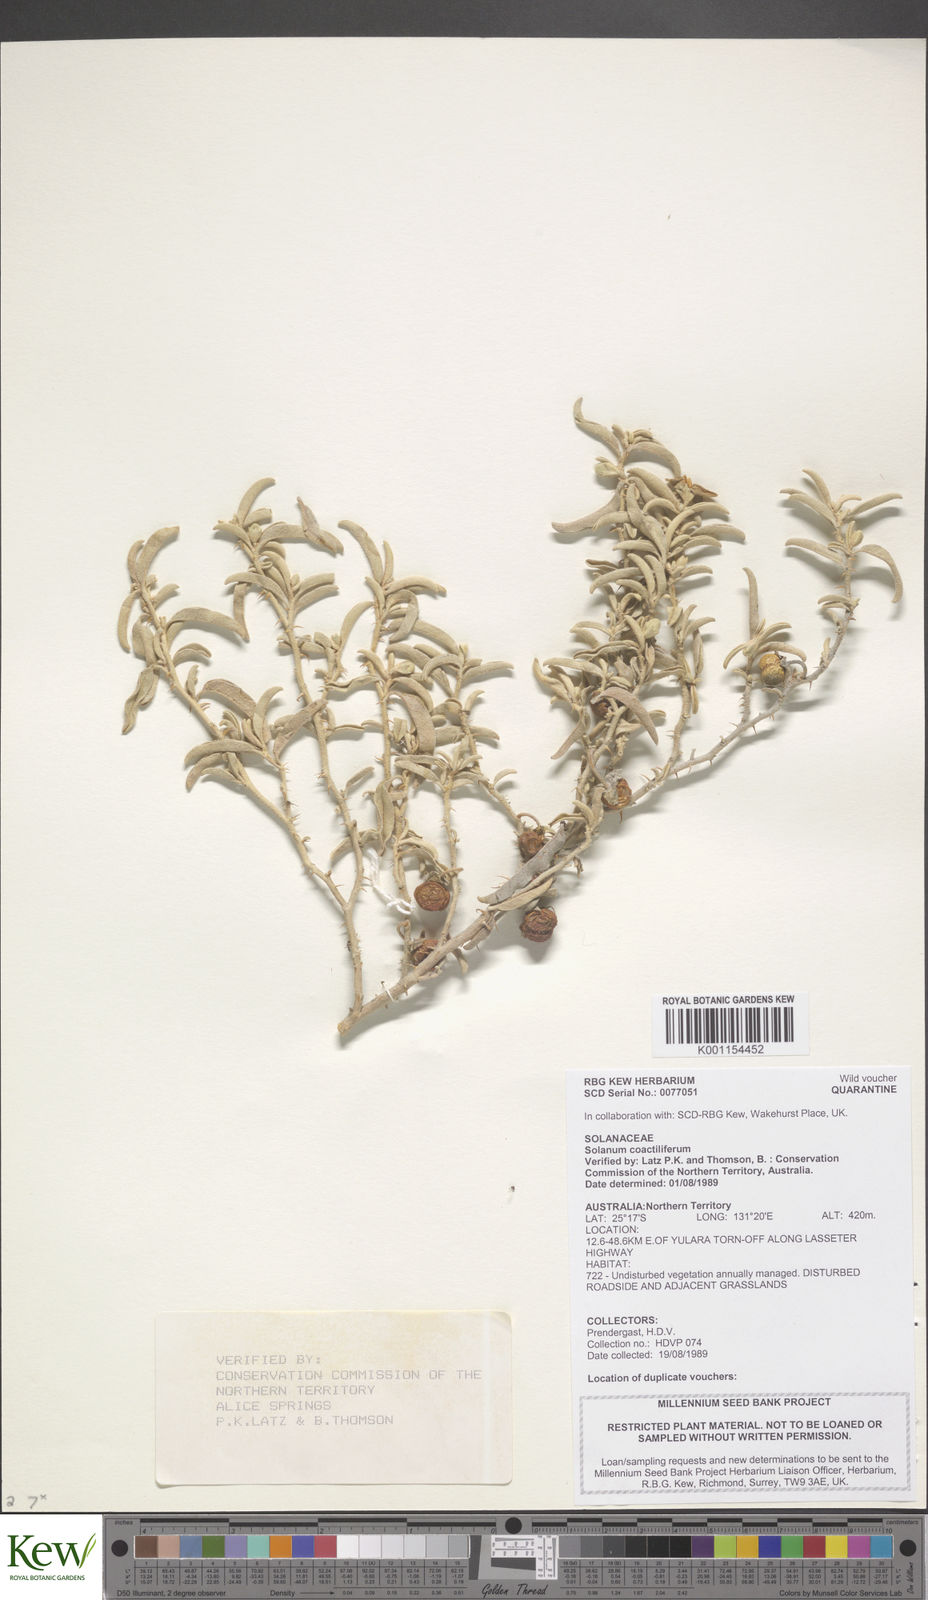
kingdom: Plantae
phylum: Tracheophyta
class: Magnoliopsida
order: Solanales
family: Solanaceae
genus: Solanum
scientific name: Solanum coactiliferum
